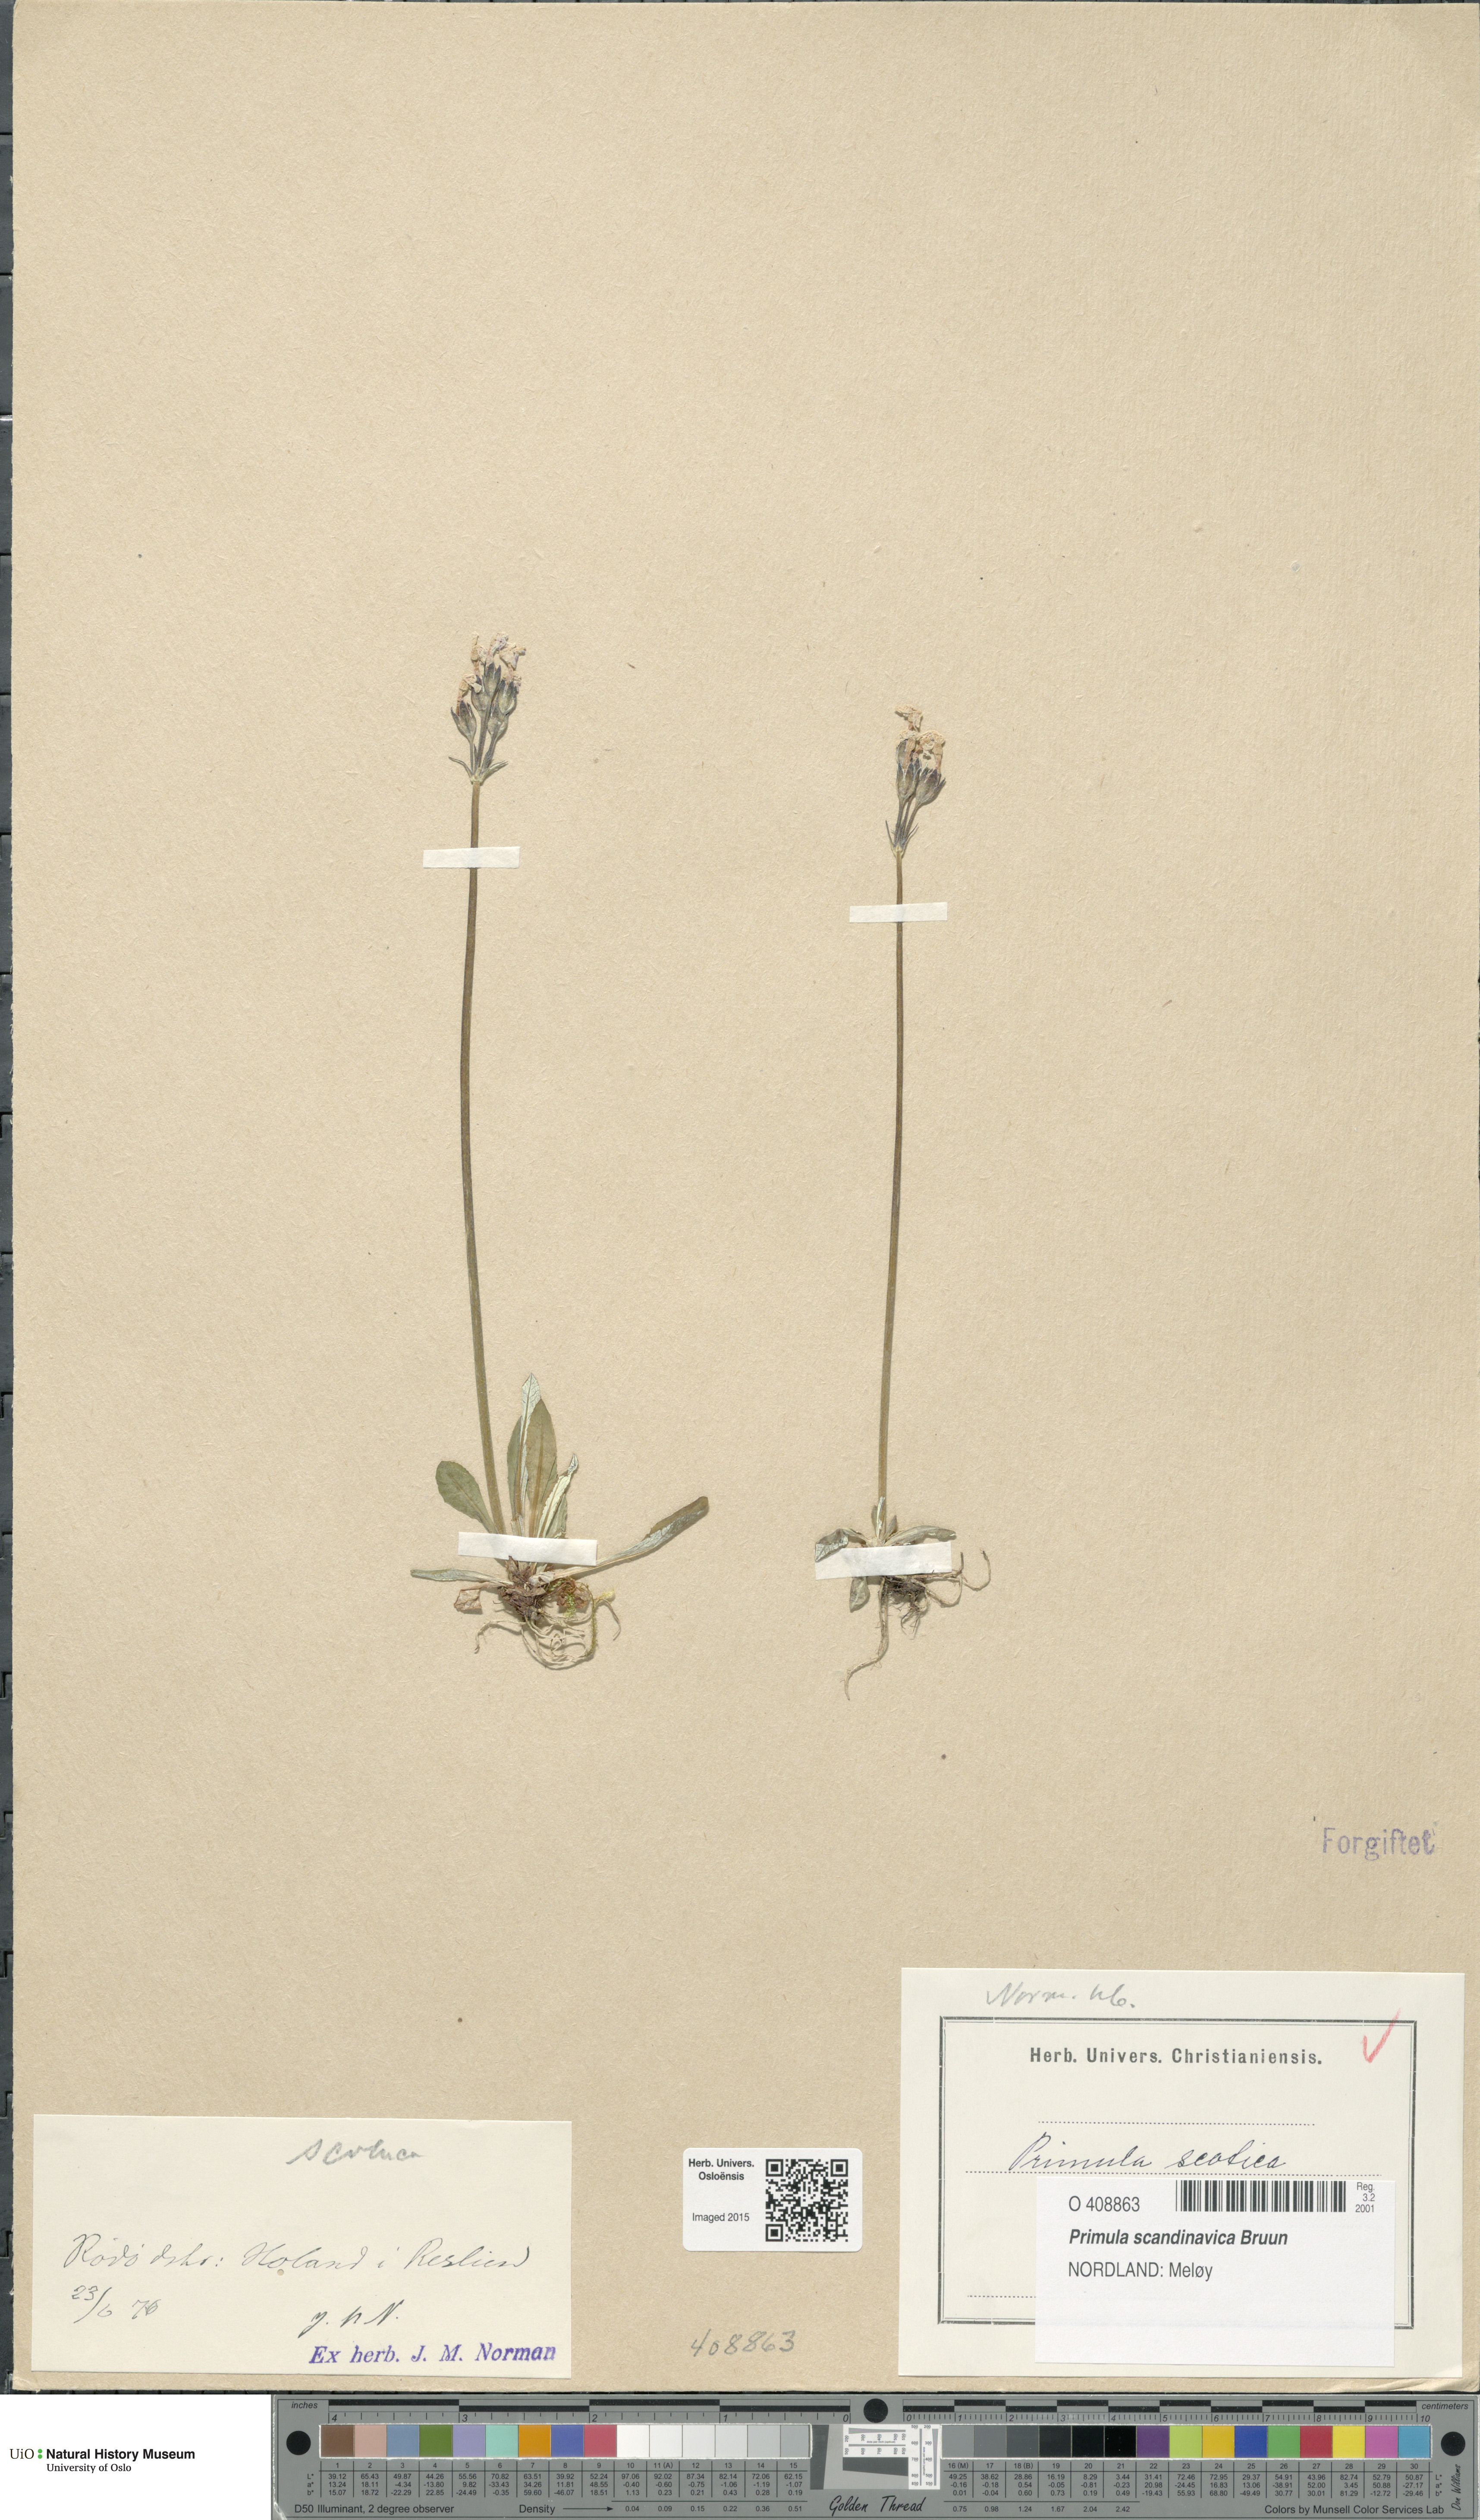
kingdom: Plantae
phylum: Tracheophyta
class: Magnoliopsida
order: Ericales
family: Primulaceae
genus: Primula
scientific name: Primula scandinavica
